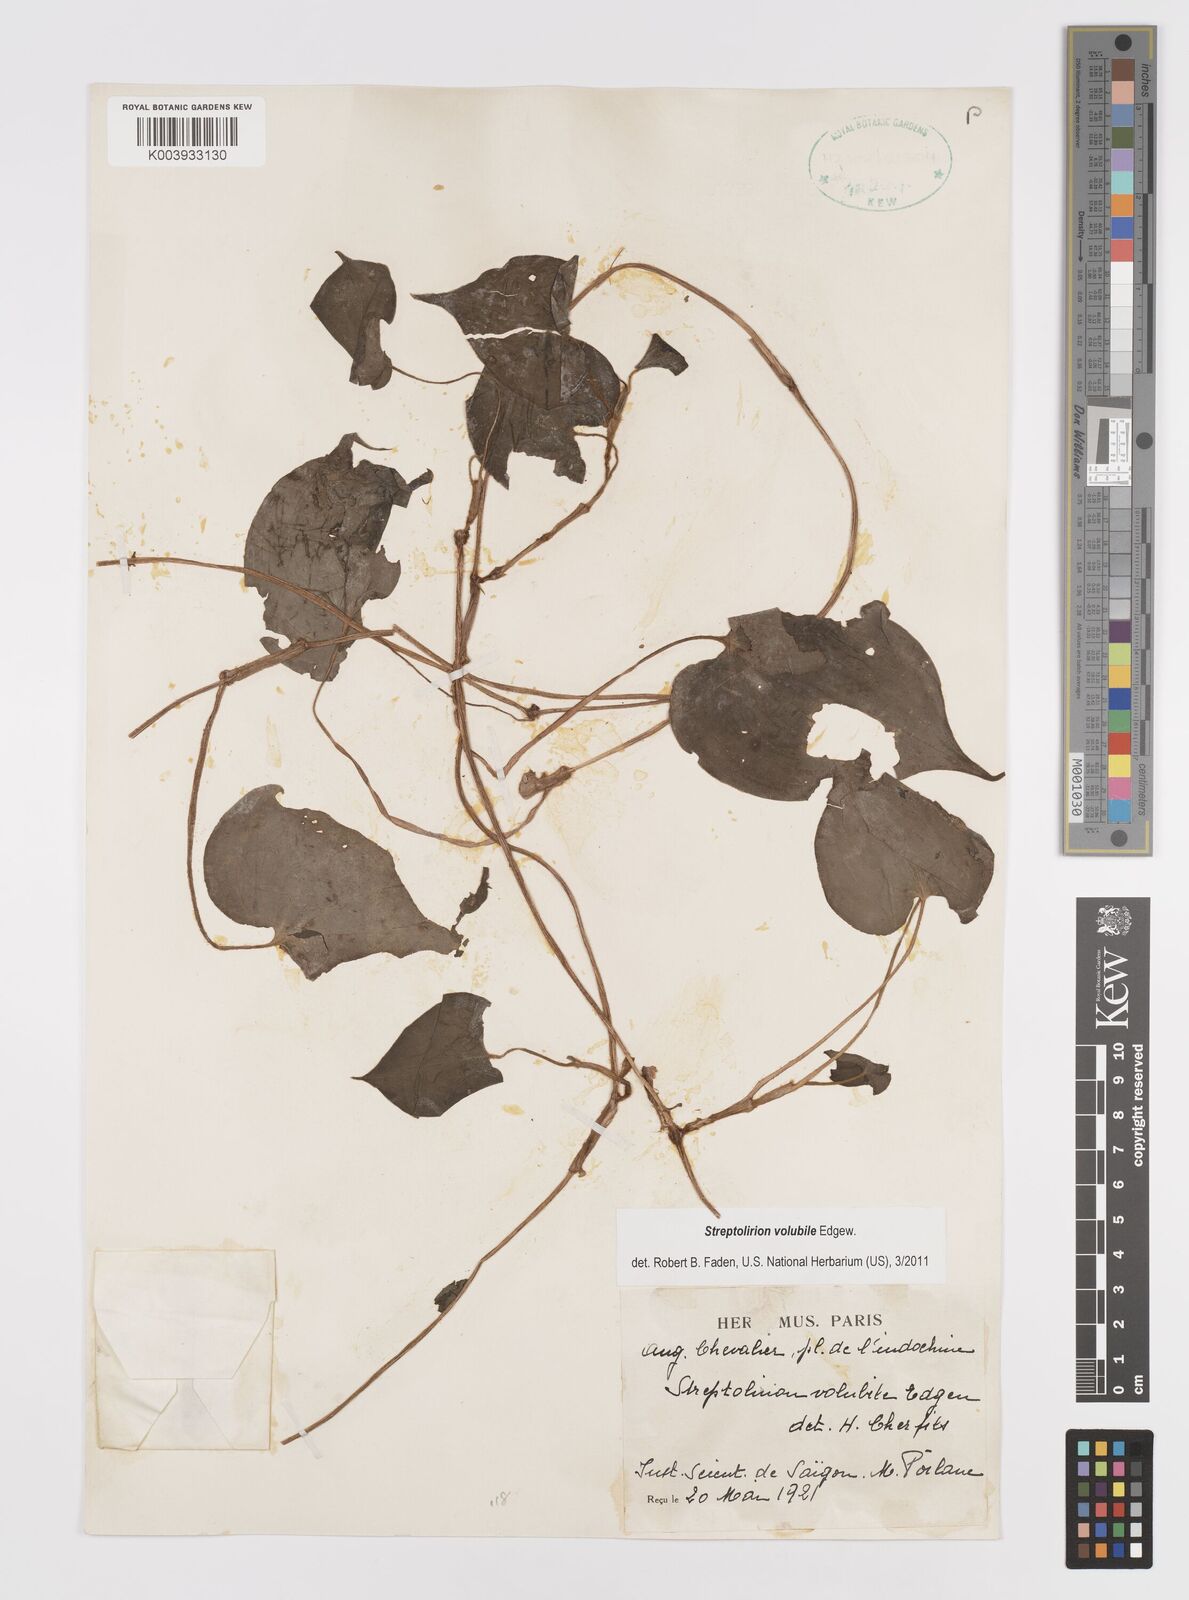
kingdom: Plantae
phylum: Tracheophyta
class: Liliopsida
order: Commelinales
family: Commelinaceae
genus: Streptolirion
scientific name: Streptolirion volubile
